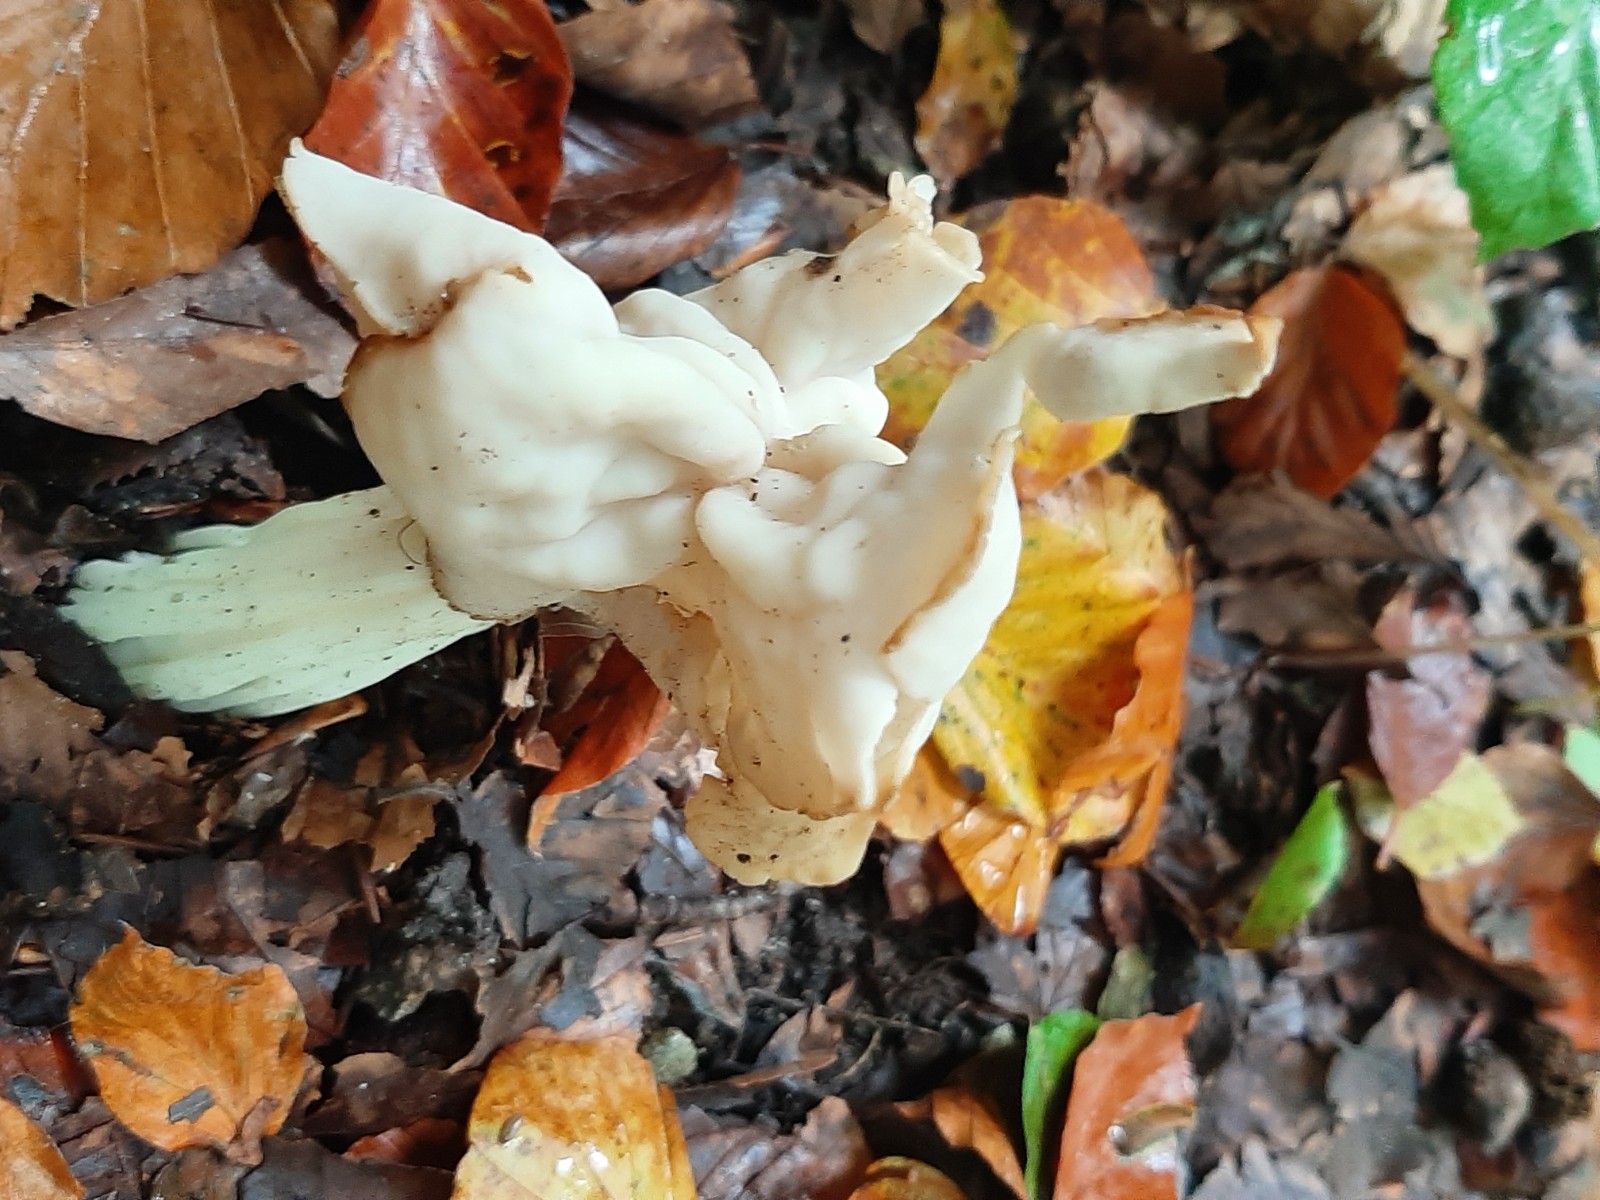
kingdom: Fungi
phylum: Ascomycota
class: Pezizomycetes
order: Pezizales
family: Helvellaceae
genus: Helvella
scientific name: Helvella crispa
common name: kruset foldhat
